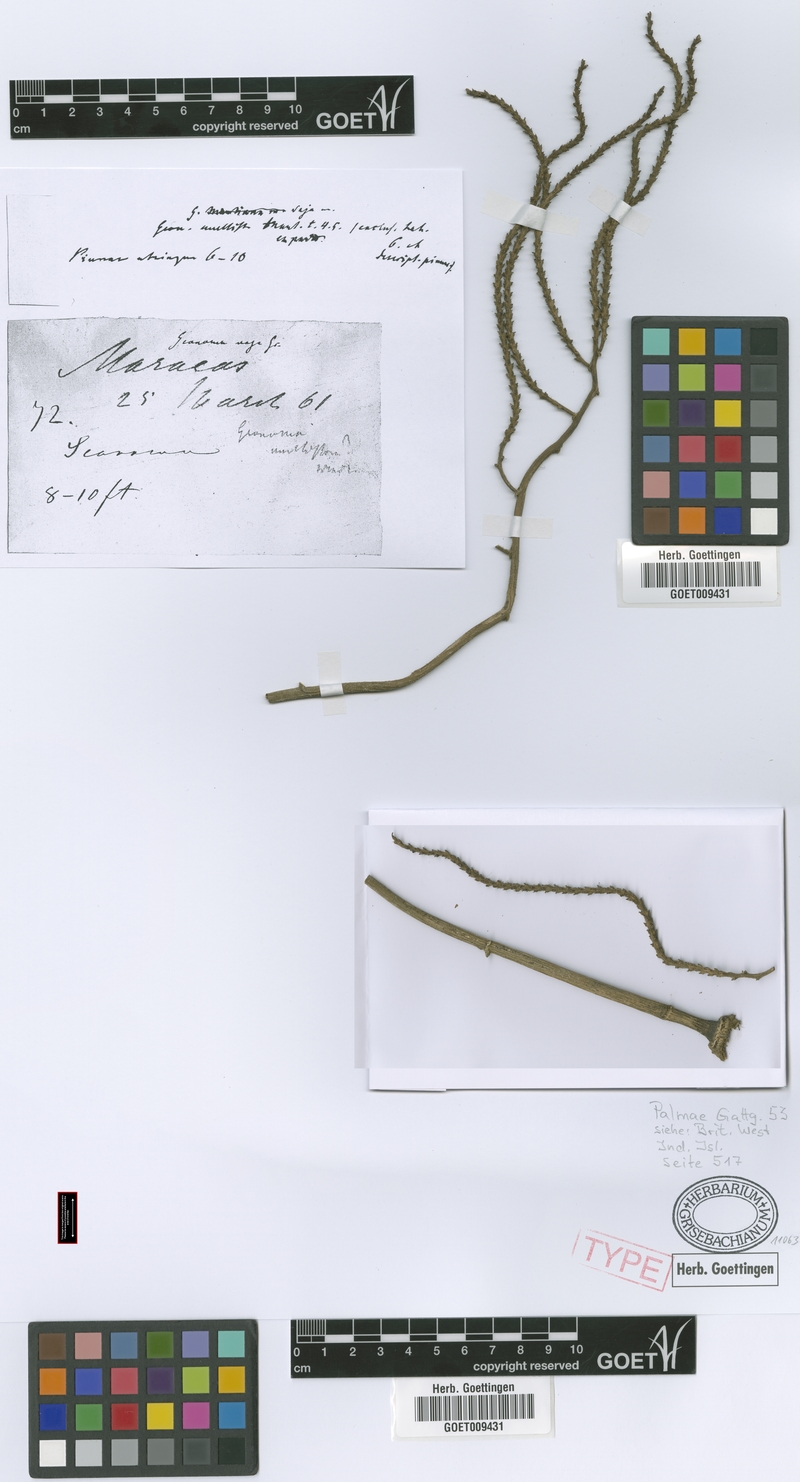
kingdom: Plantae
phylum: Tracheophyta
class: Liliopsida
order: Arecales
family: Arecaceae
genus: Geonoma
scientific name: Geonoma pinnatifrons
